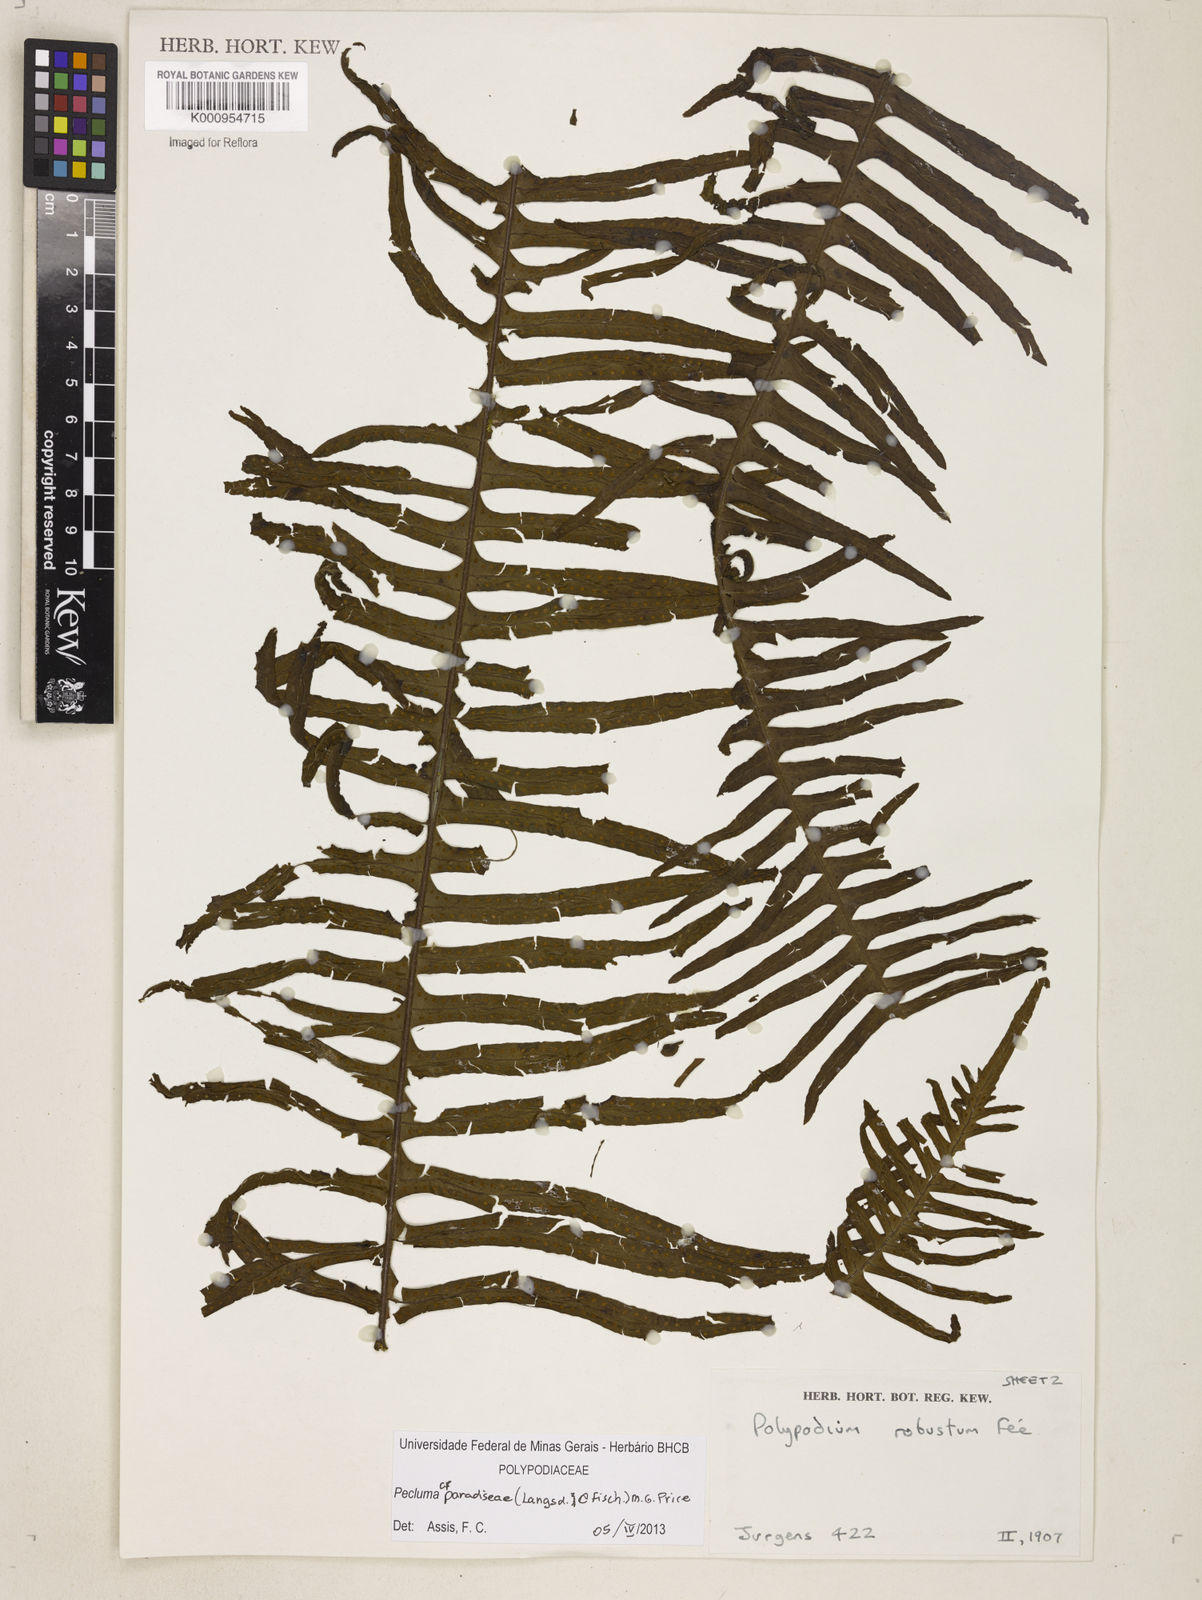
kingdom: Plantae
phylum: Tracheophyta
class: Polypodiopsida
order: Polypodiales
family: Polypodiaceae
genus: Pecluma
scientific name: Pecluma paradiseae
